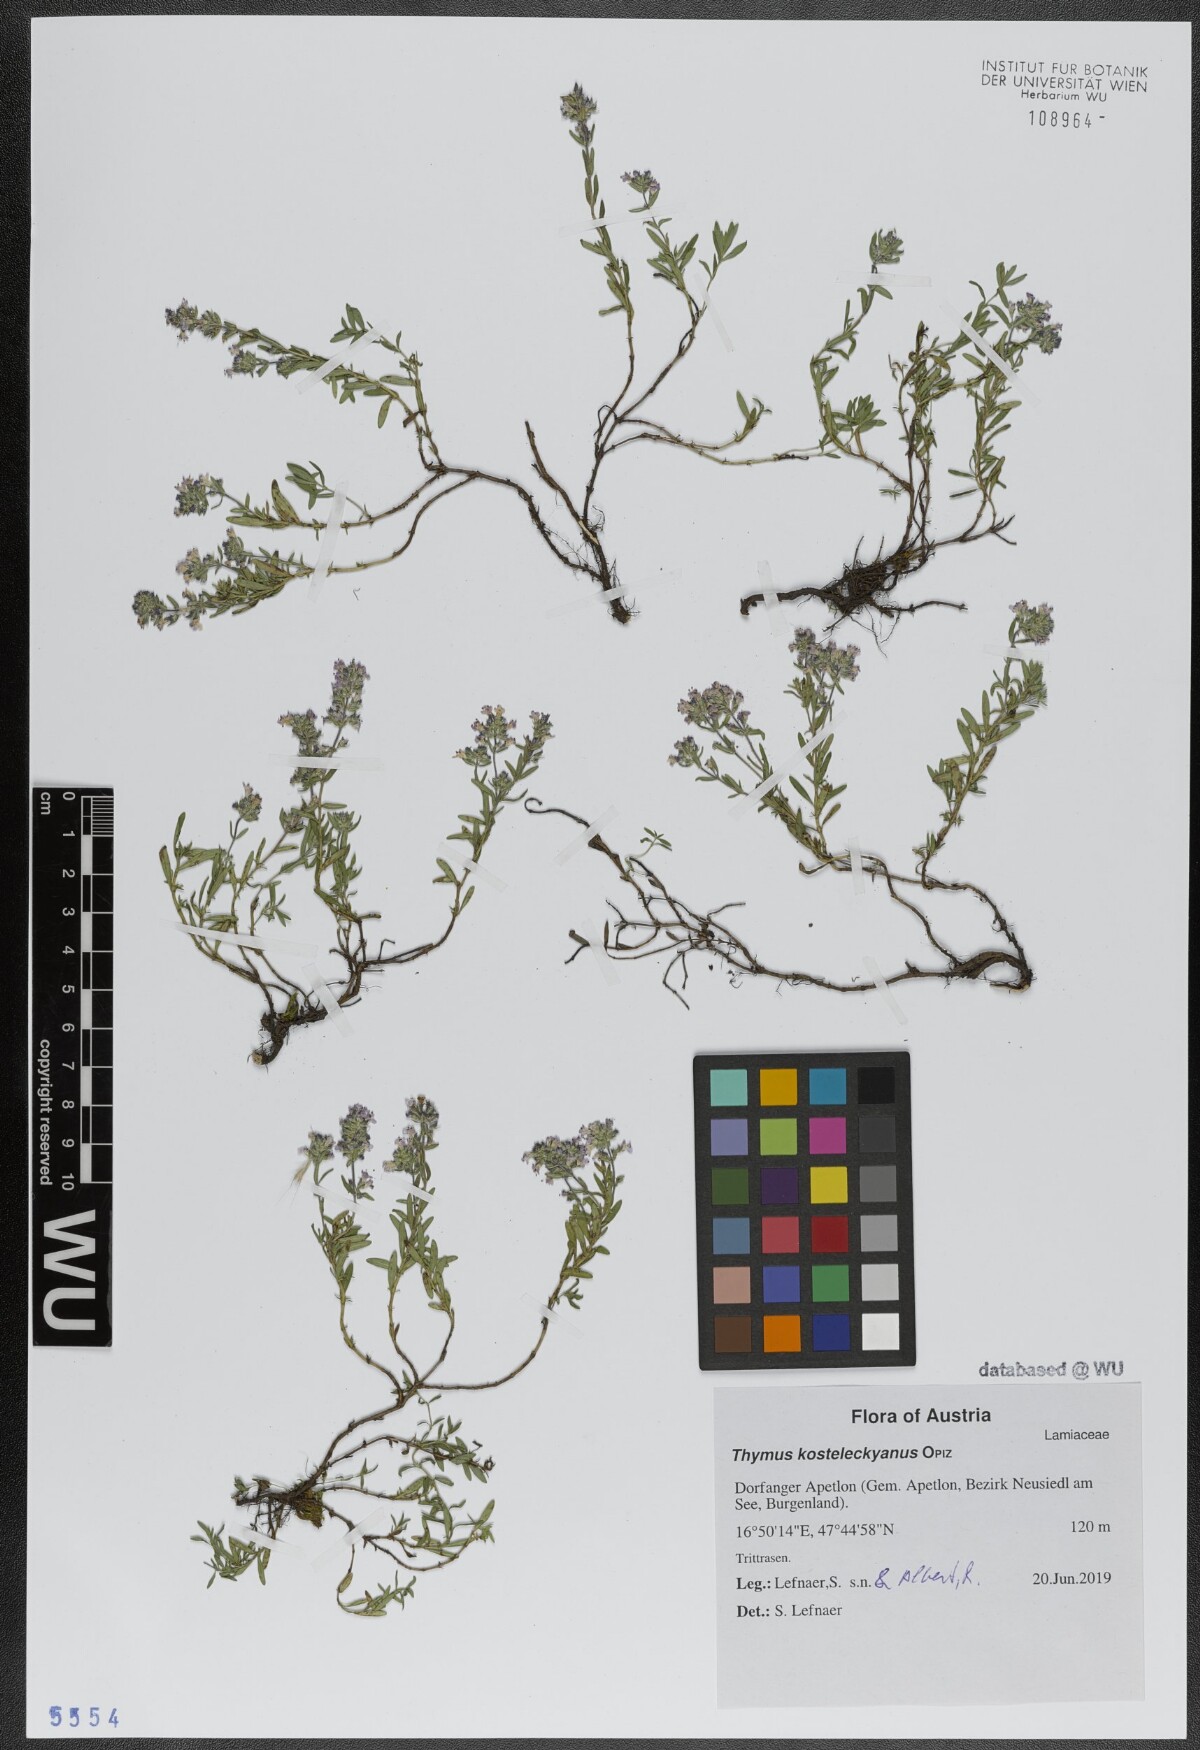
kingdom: Plantae
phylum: Tracheophyta
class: Magnoliopsida
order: Lamiales
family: Lamiaceae
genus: Thymus
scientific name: Thymus kosteleckyanus
